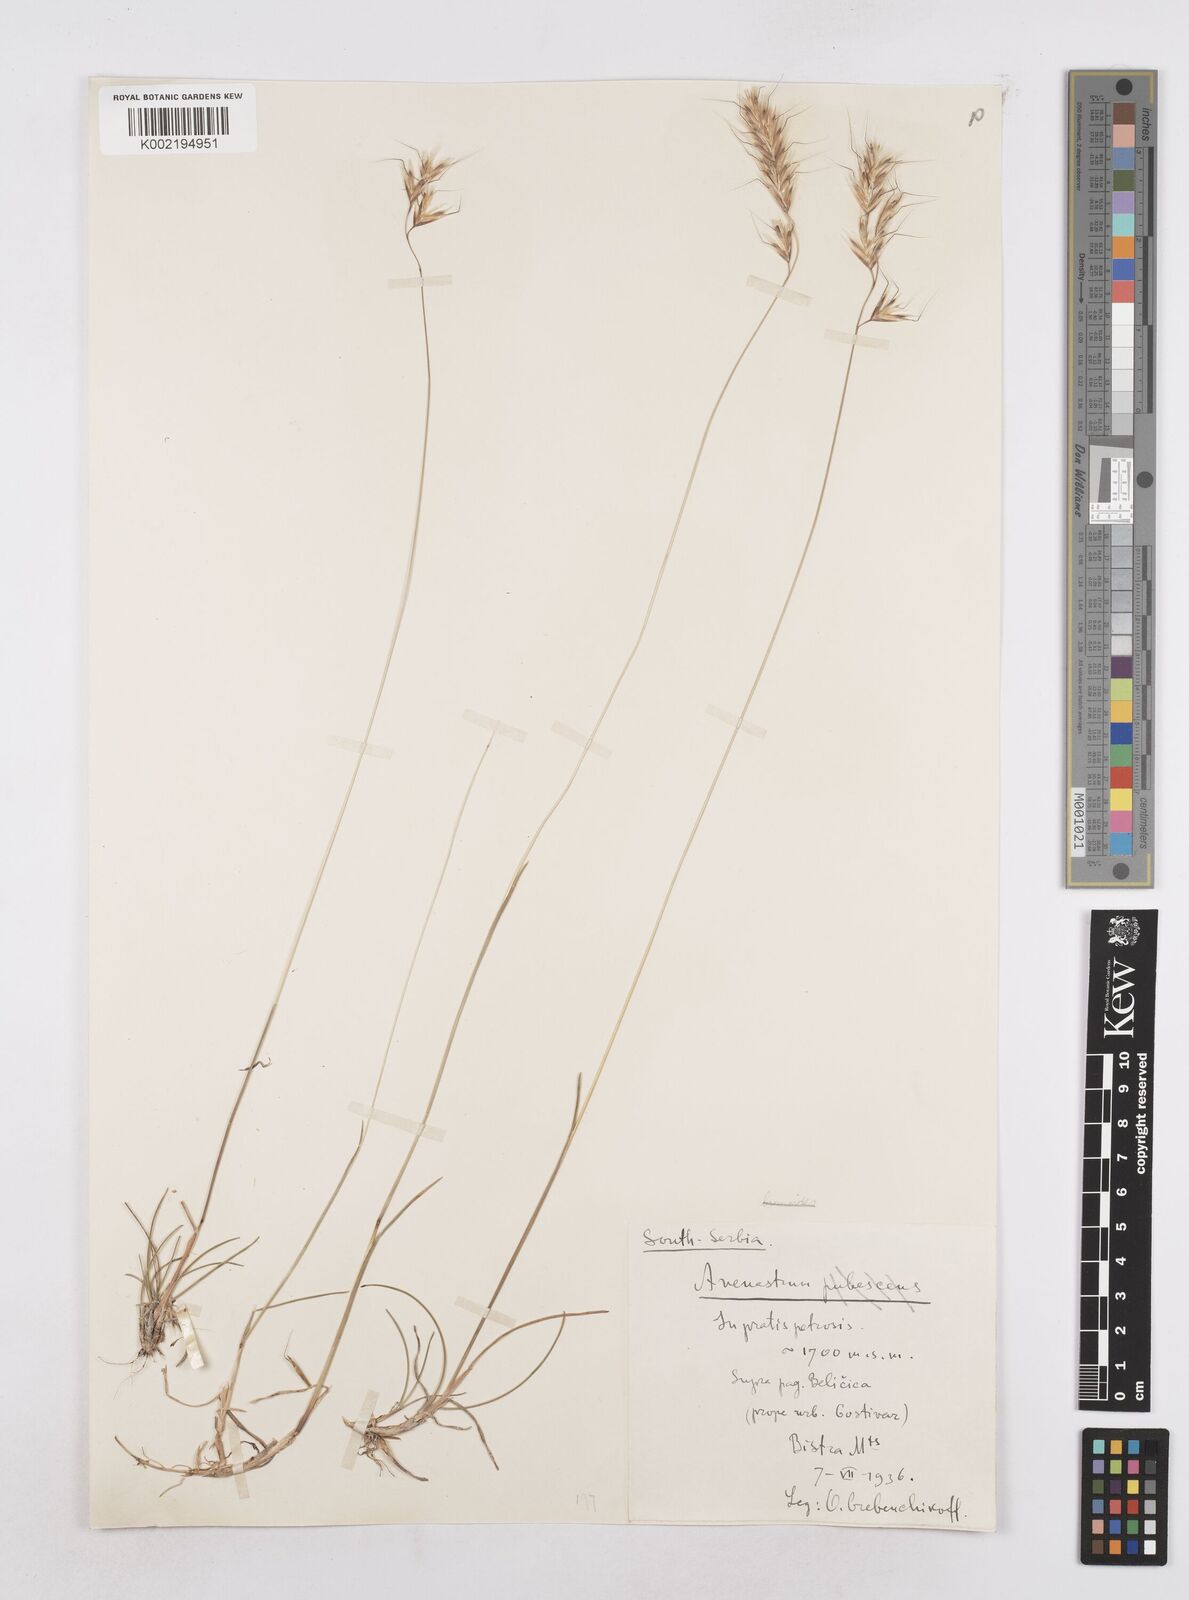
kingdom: Plantae
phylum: Tracheophyta
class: Liliopsida
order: Poales
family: Poaceae
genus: Helictochloa
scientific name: Helictochloa blaui
